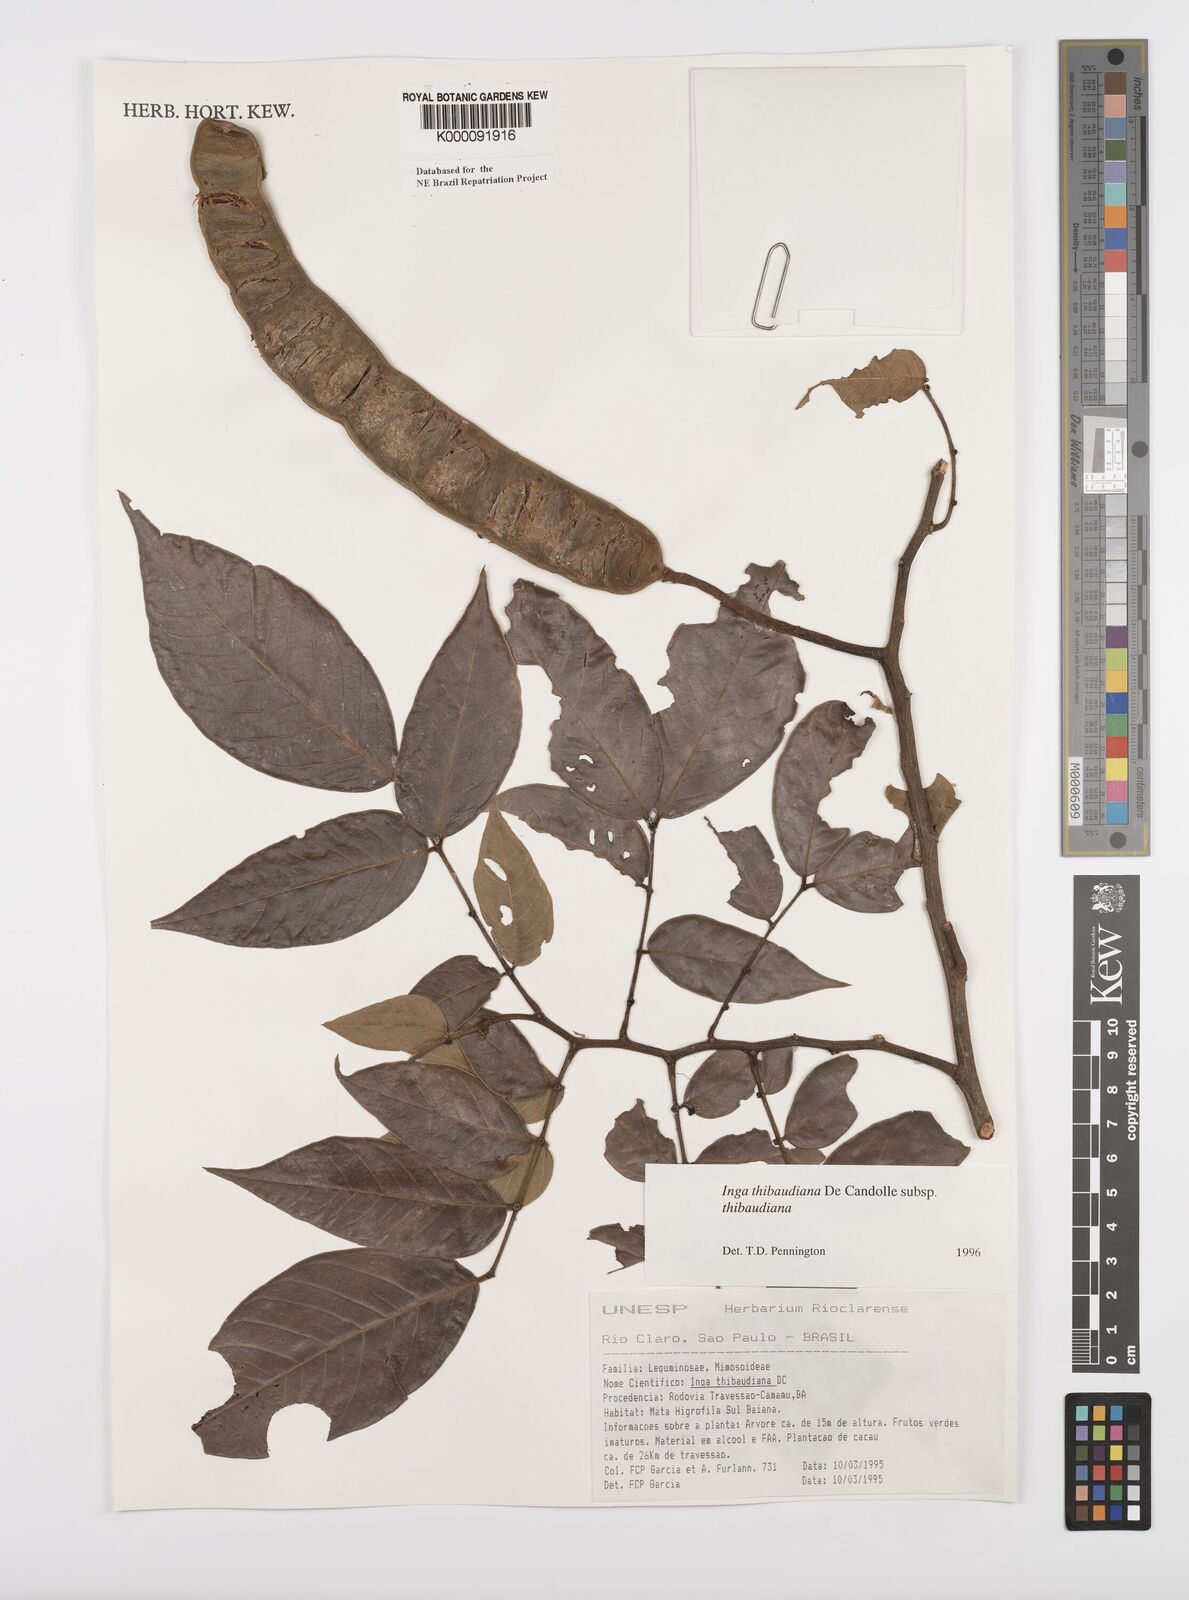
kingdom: Plantae
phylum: Tracheophyta
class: Magnoliopsida
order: Fabales
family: Fabaceae
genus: Inga
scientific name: Inga thibaudiana
